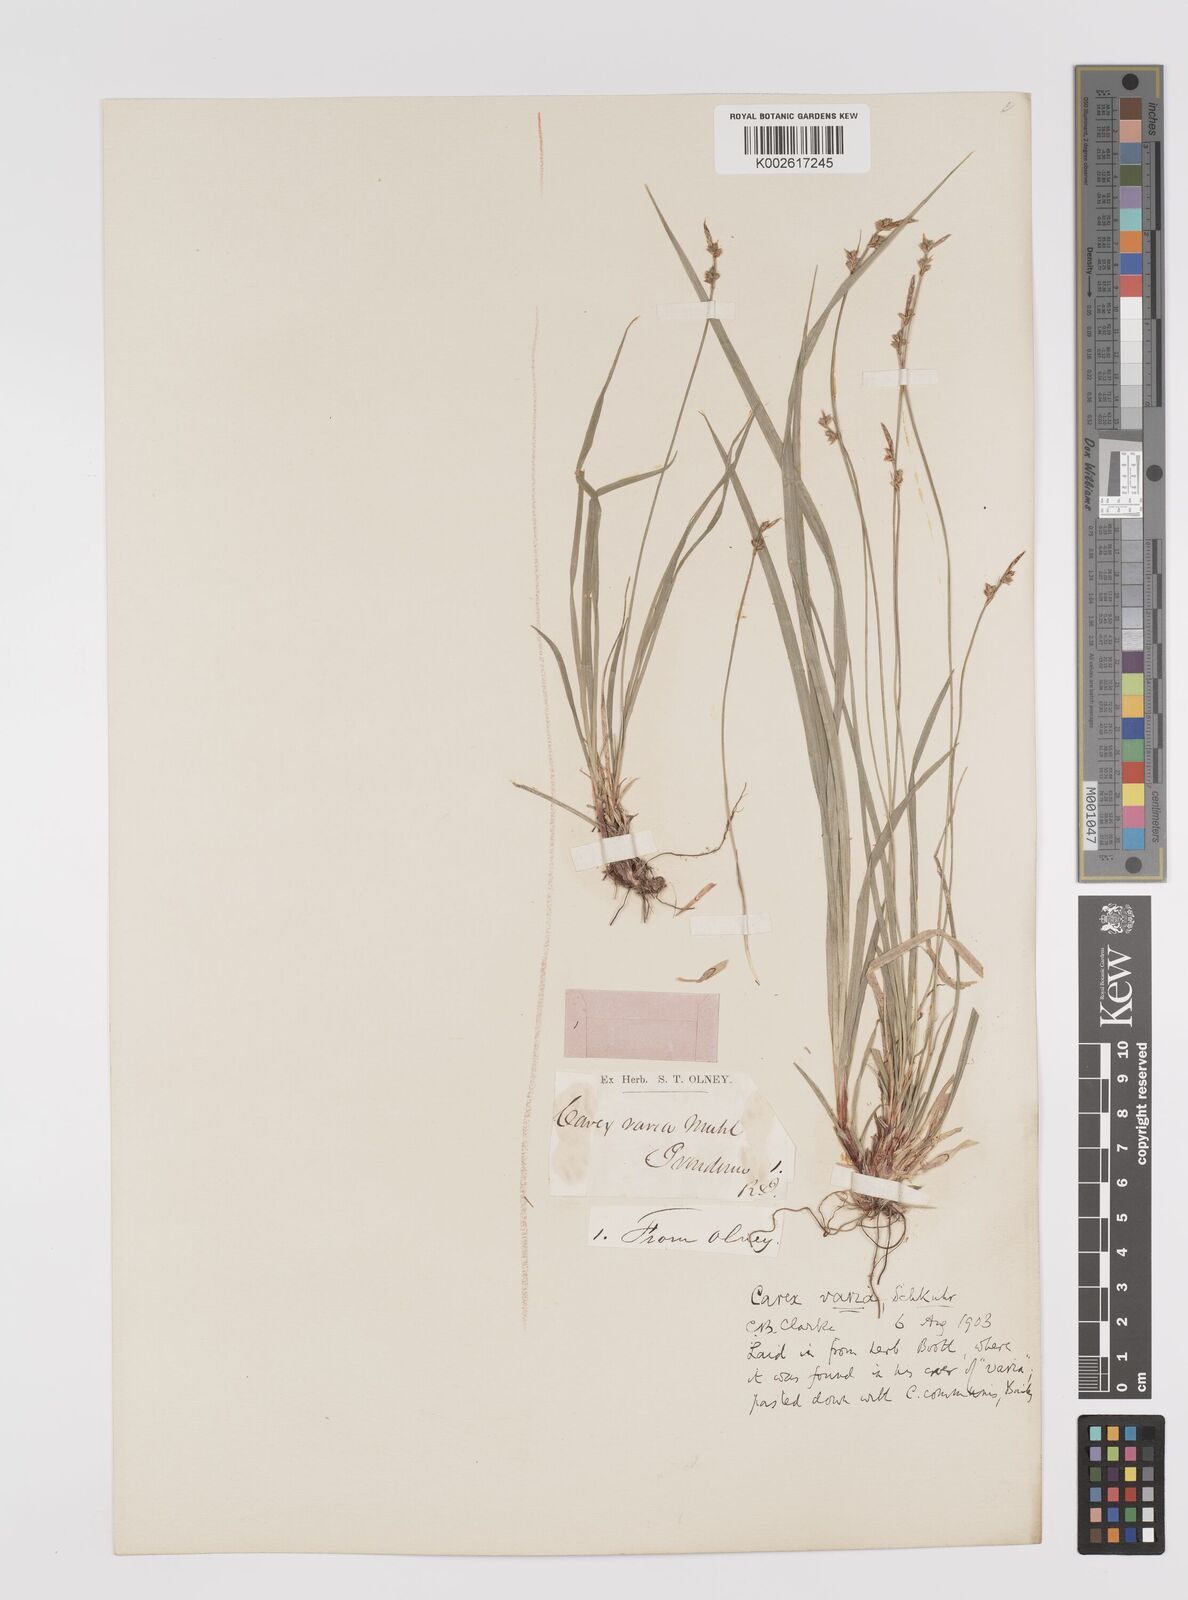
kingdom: Plantae
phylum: Tracheophyta
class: Liliopsida
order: Poales
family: Cyperaceae
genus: Carex
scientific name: Carex albicans
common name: Bellow-beaked sedge
